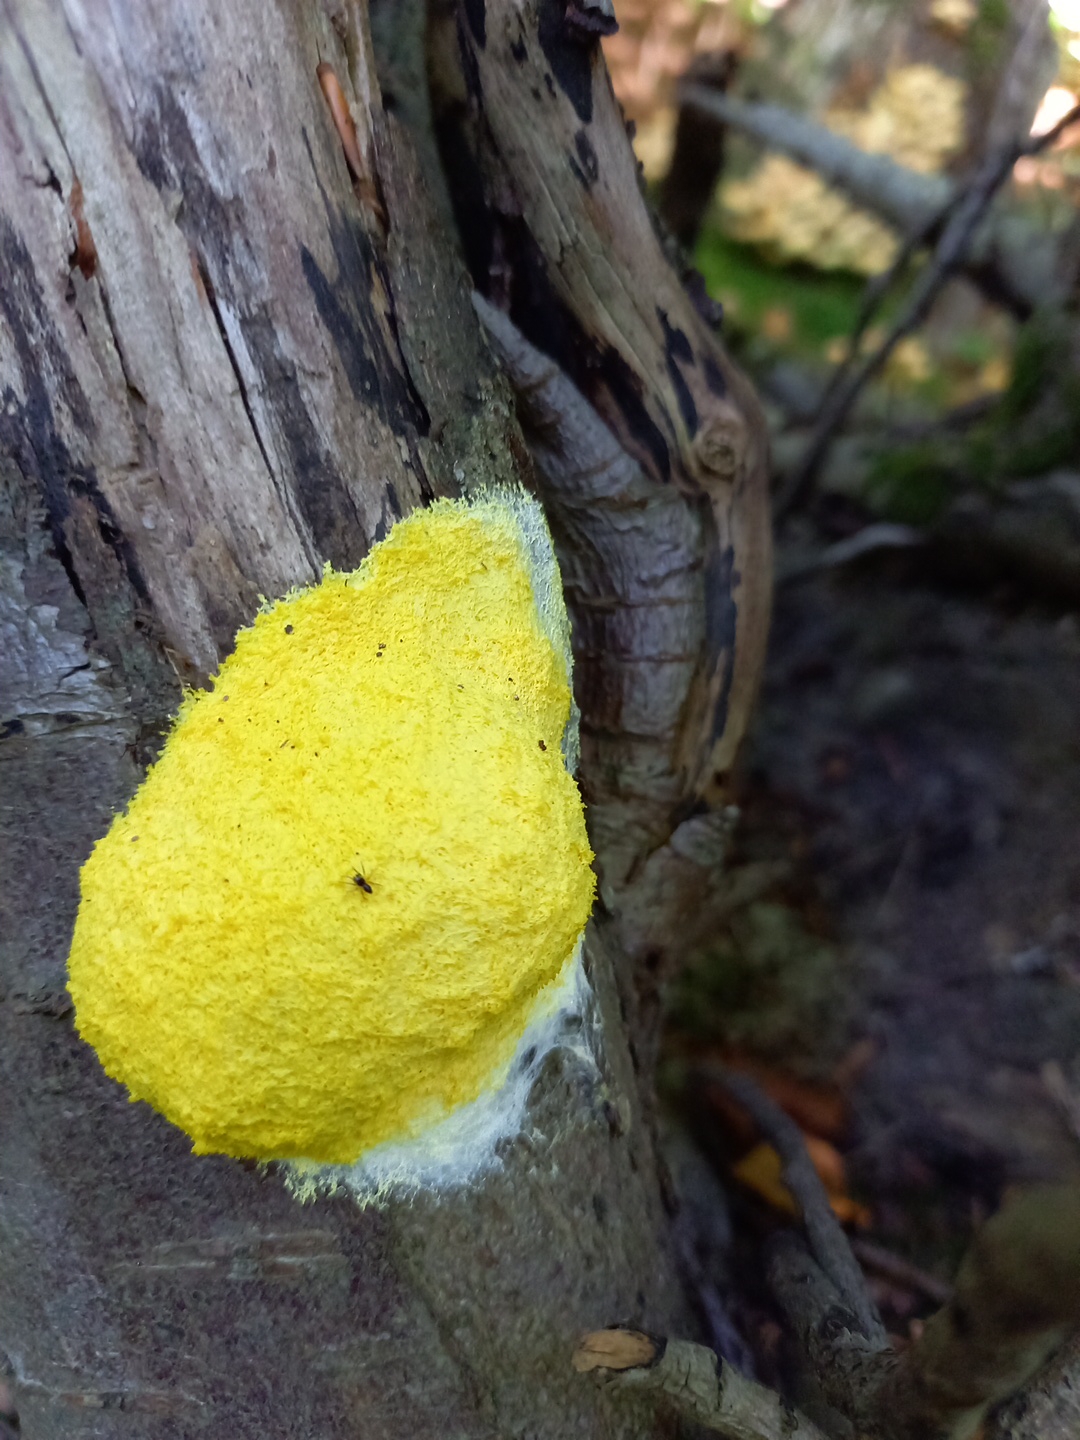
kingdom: Protozoa
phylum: Mycetozoa
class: Myxomycetes
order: Physarales
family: Physaraceae
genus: Fuligo
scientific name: Fuligo septica
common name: gul troldsmør
